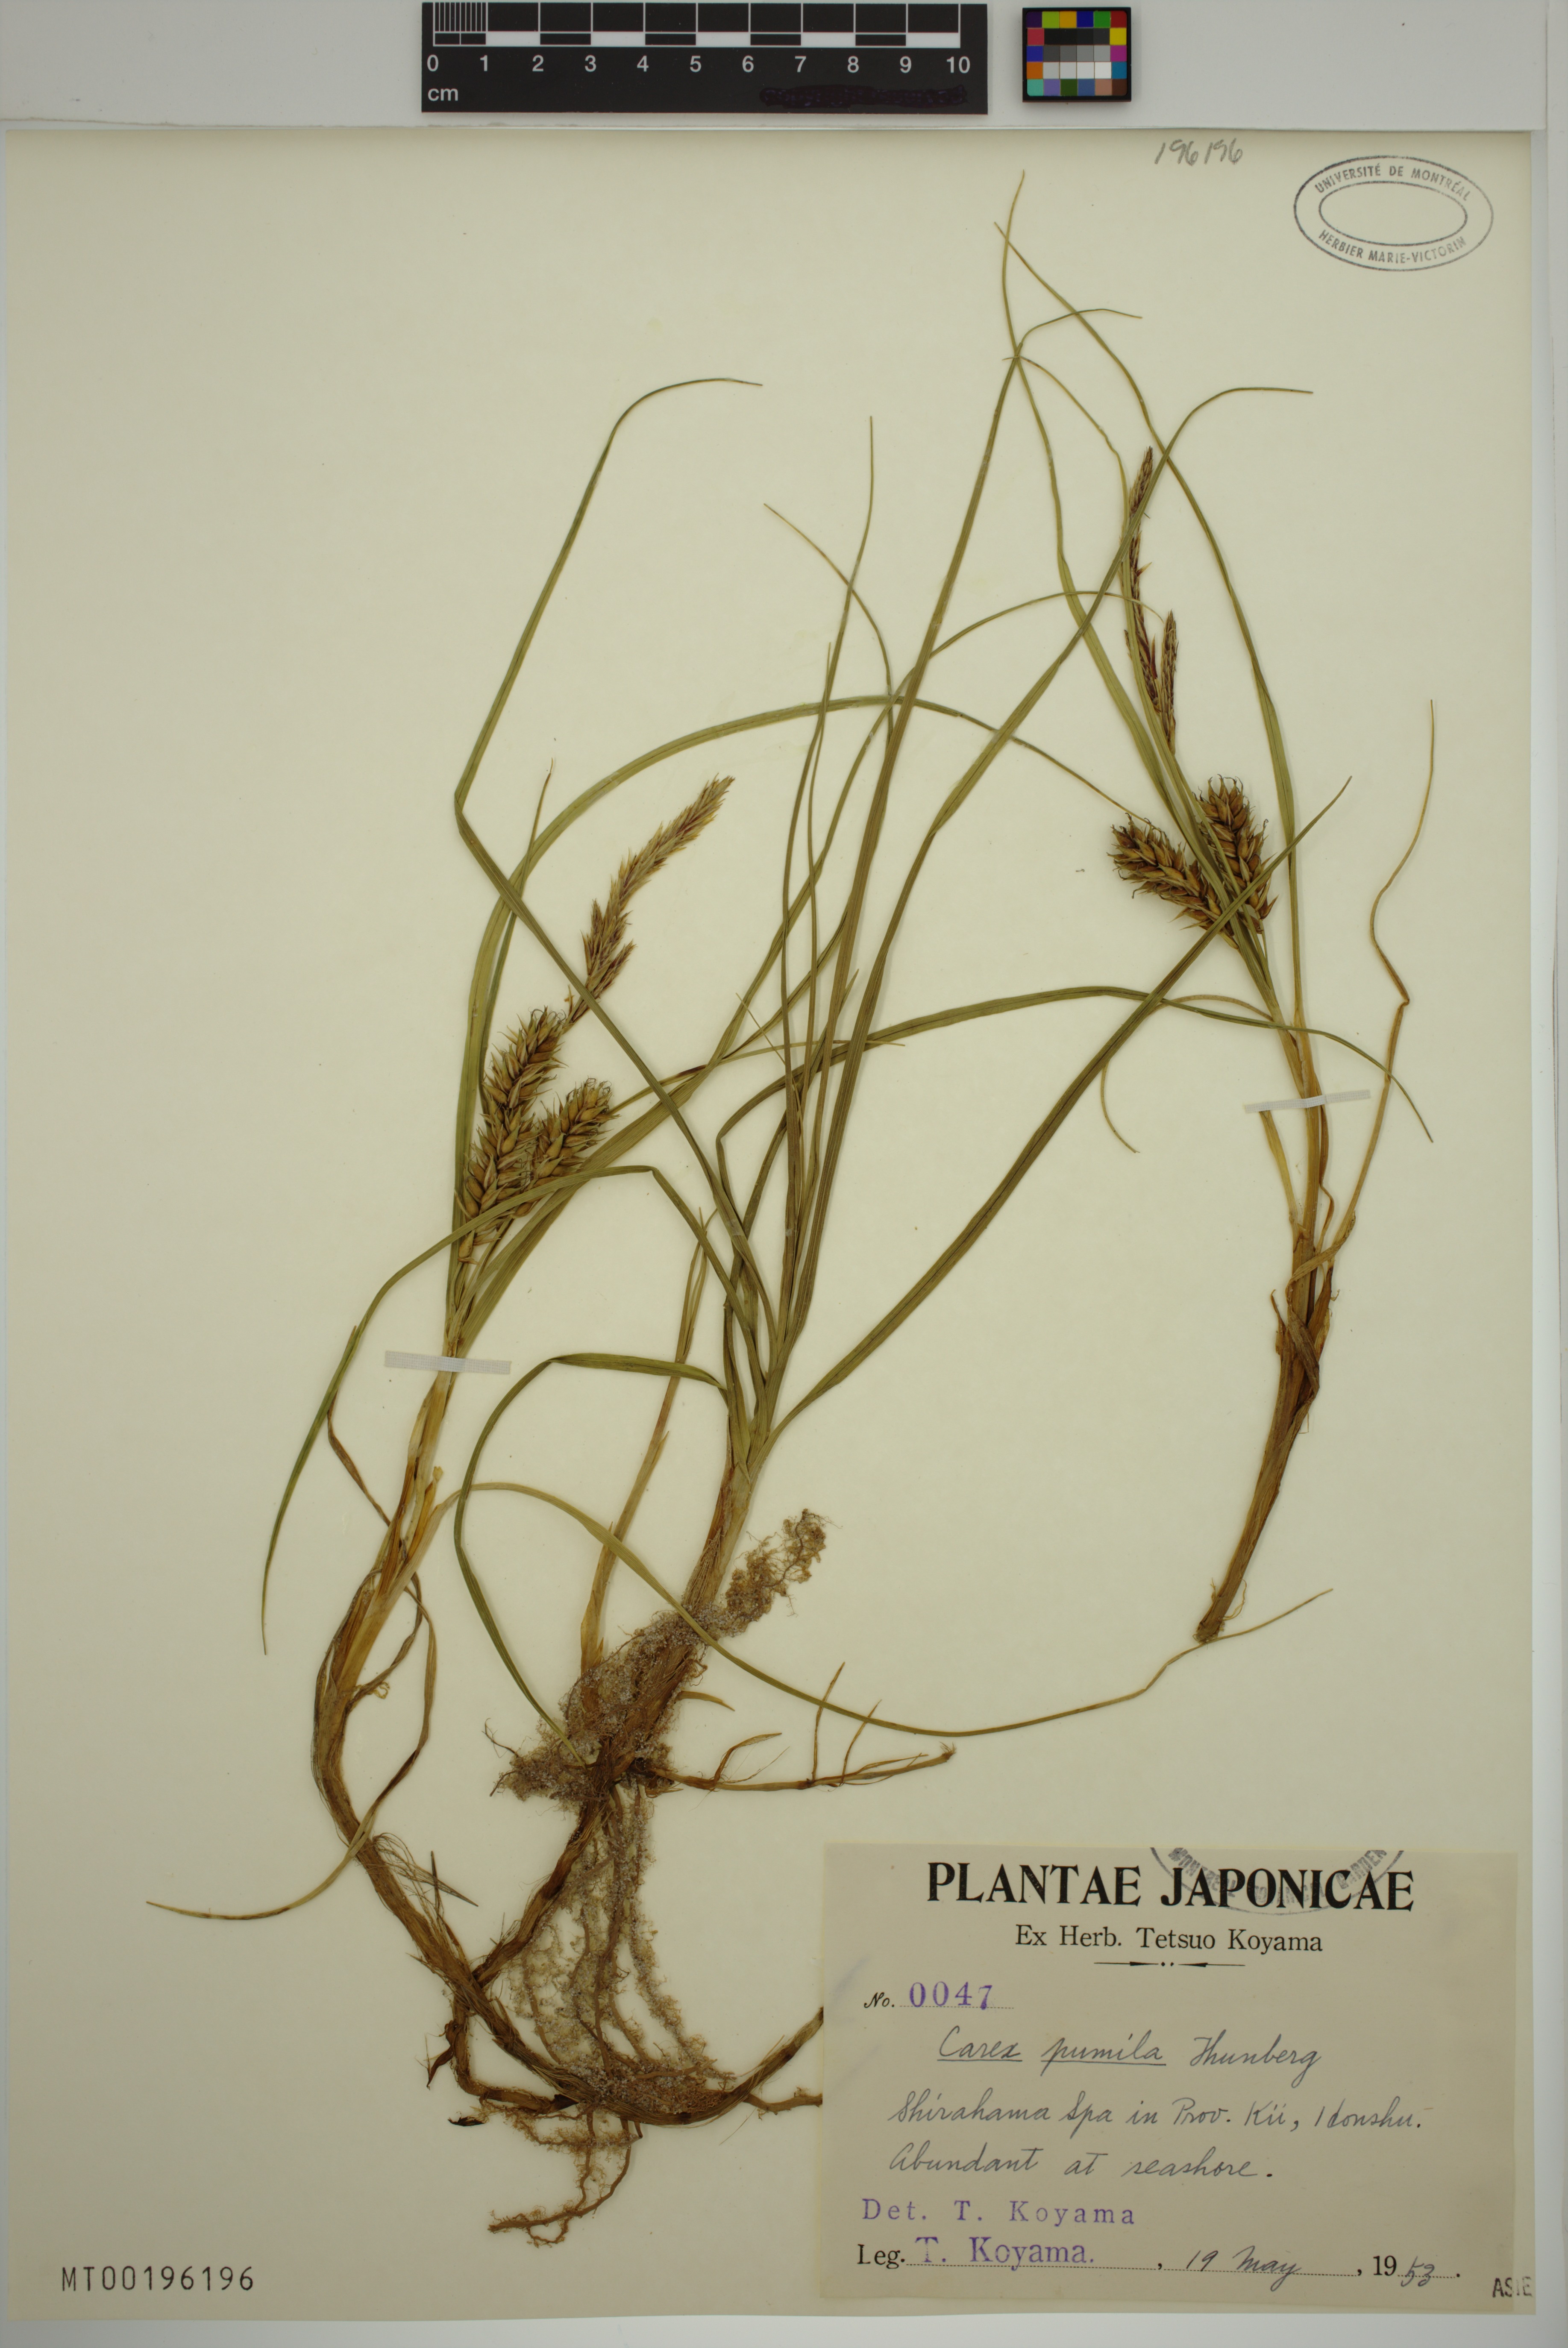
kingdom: Plantae
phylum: Tracheophyta
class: Liliopsida
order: Poales
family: Cyperaceae
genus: Carex
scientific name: Carex pumila
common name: Dwarf sedge
